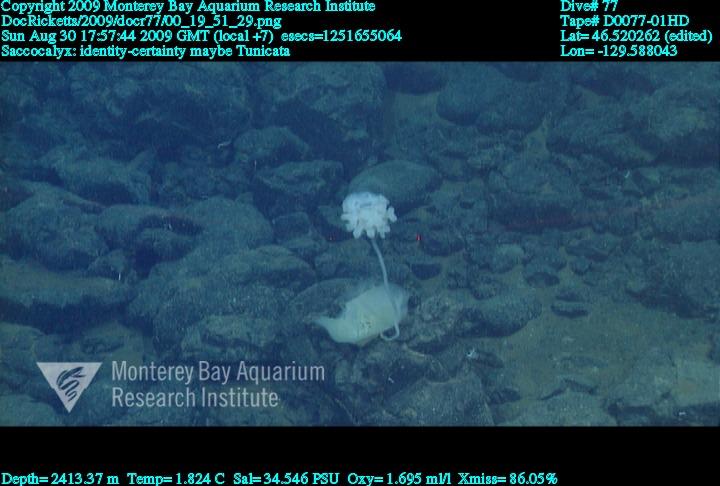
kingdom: Animalia
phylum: Porifera
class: Hexactinellida
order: Lyssacinosida
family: Euplectellidae
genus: Saccocalyx
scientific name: Saccocalyx
